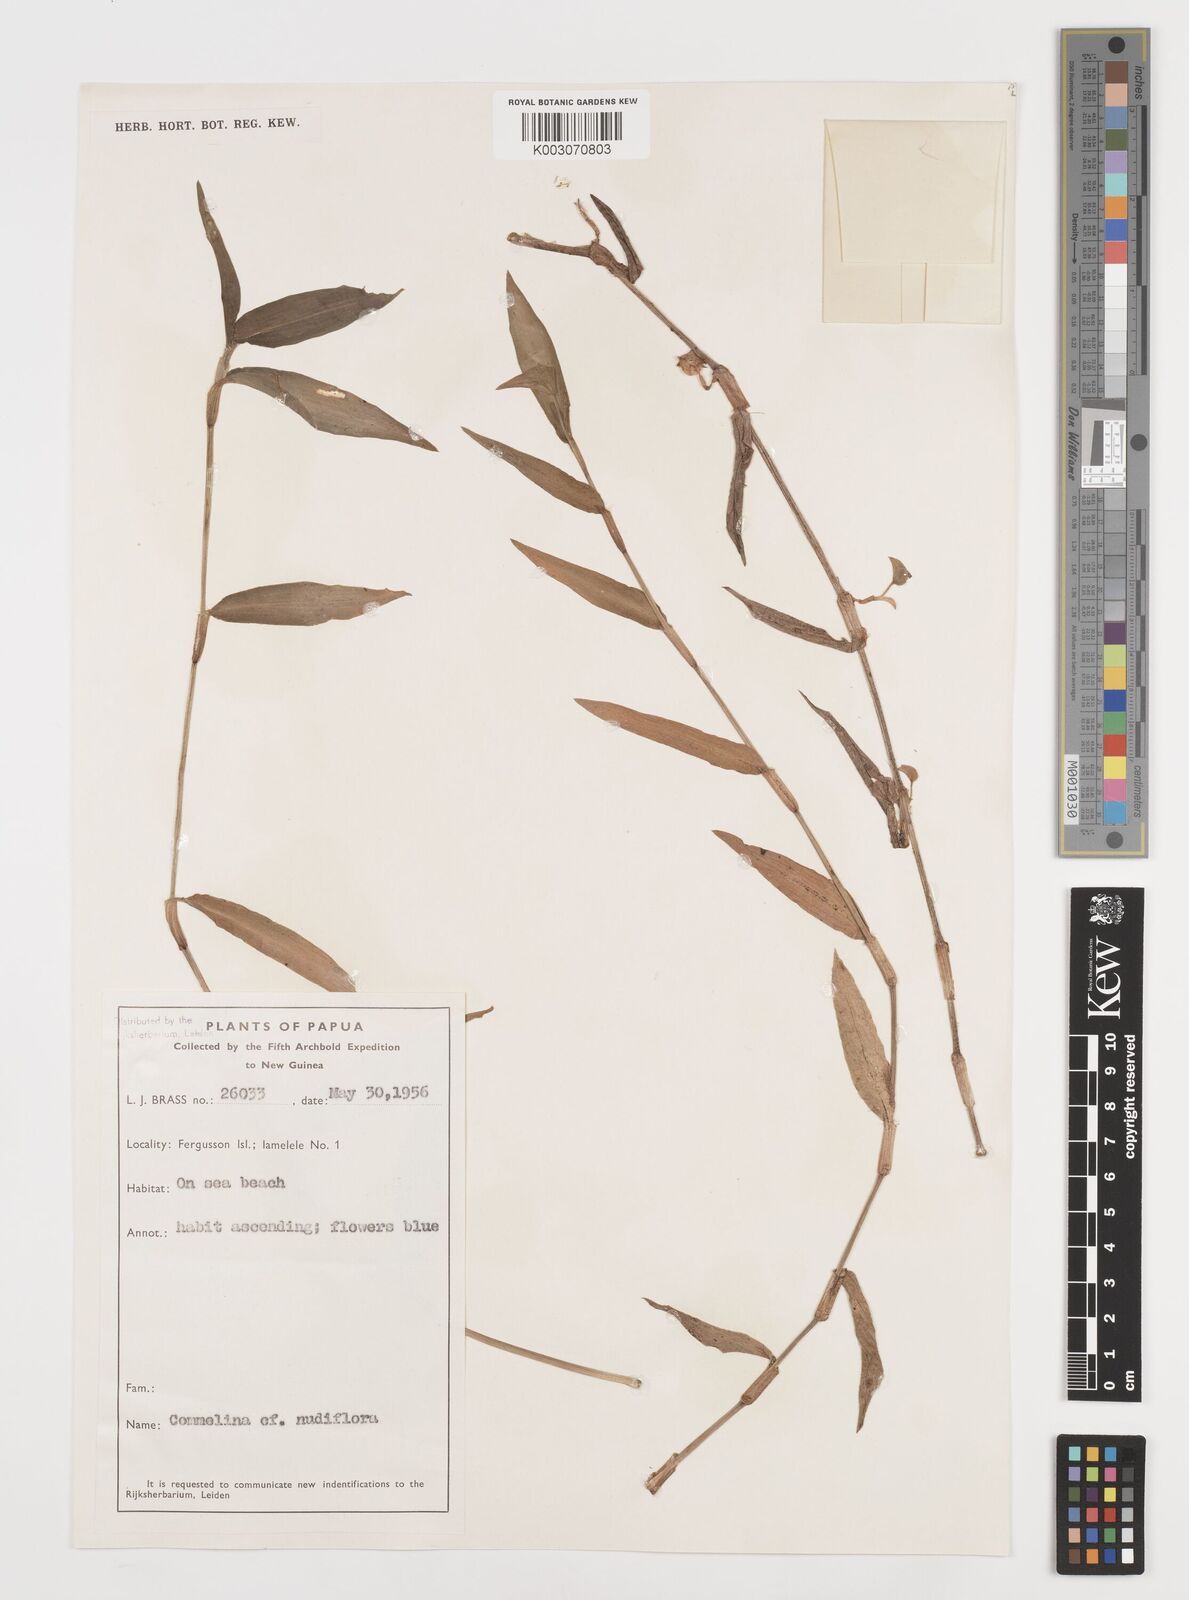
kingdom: Plantae
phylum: Tracheophyta
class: Liliopsida
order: Commelinales
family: Commelinaceae
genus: Commelina
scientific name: Commelina
